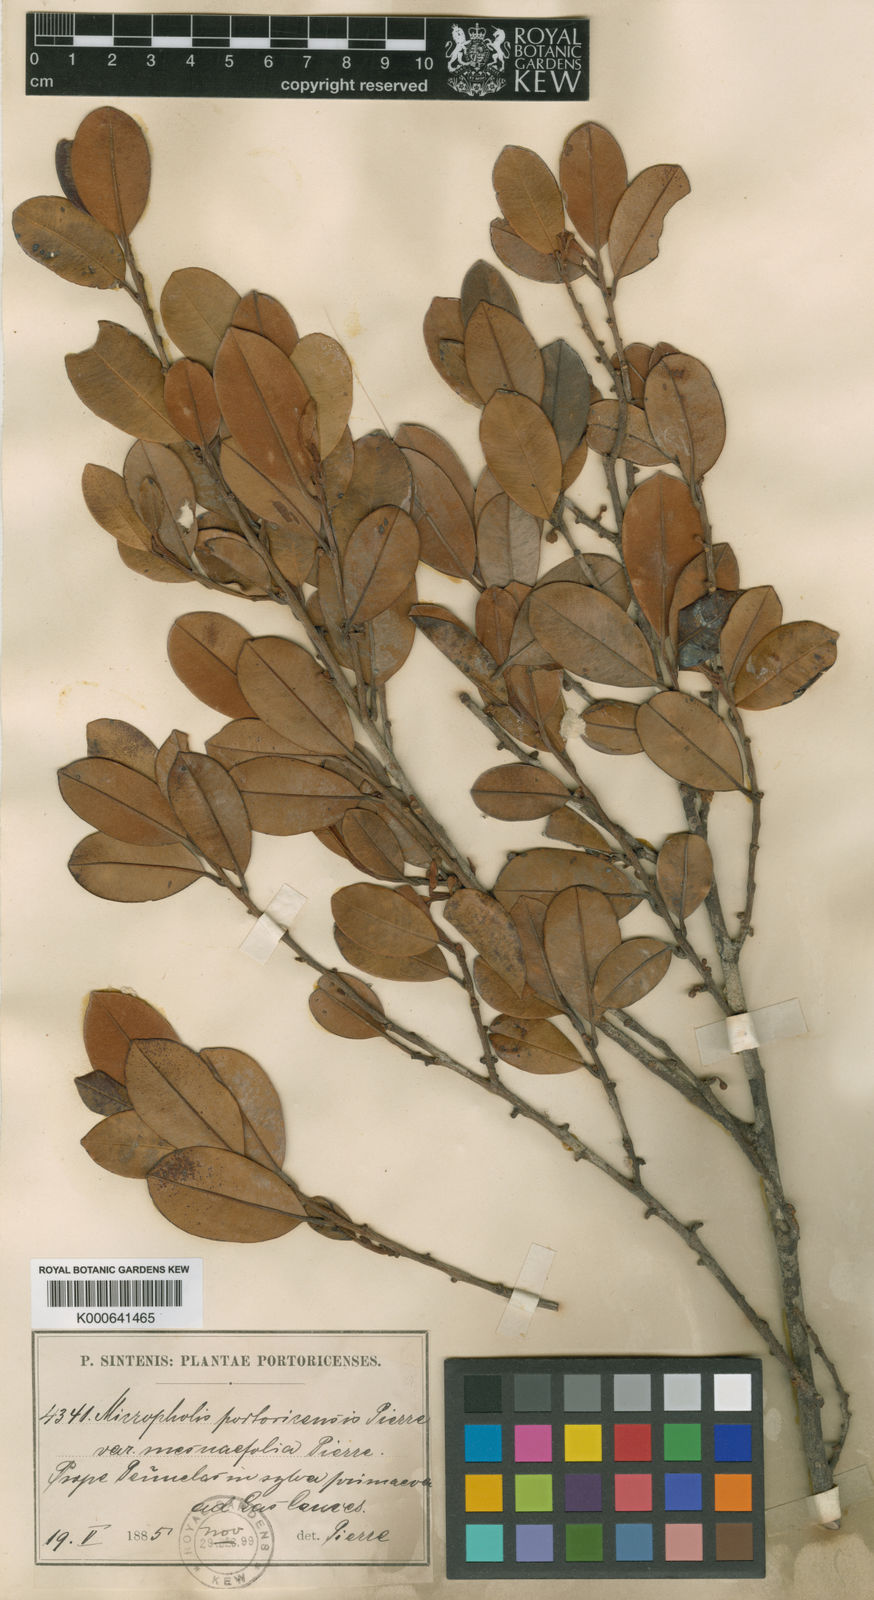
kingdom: Plantae
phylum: Tracheophyta
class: Magnoliopsida
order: Ericales
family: Sapotaceae
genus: Micropholis
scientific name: Micropholis guyanensis
